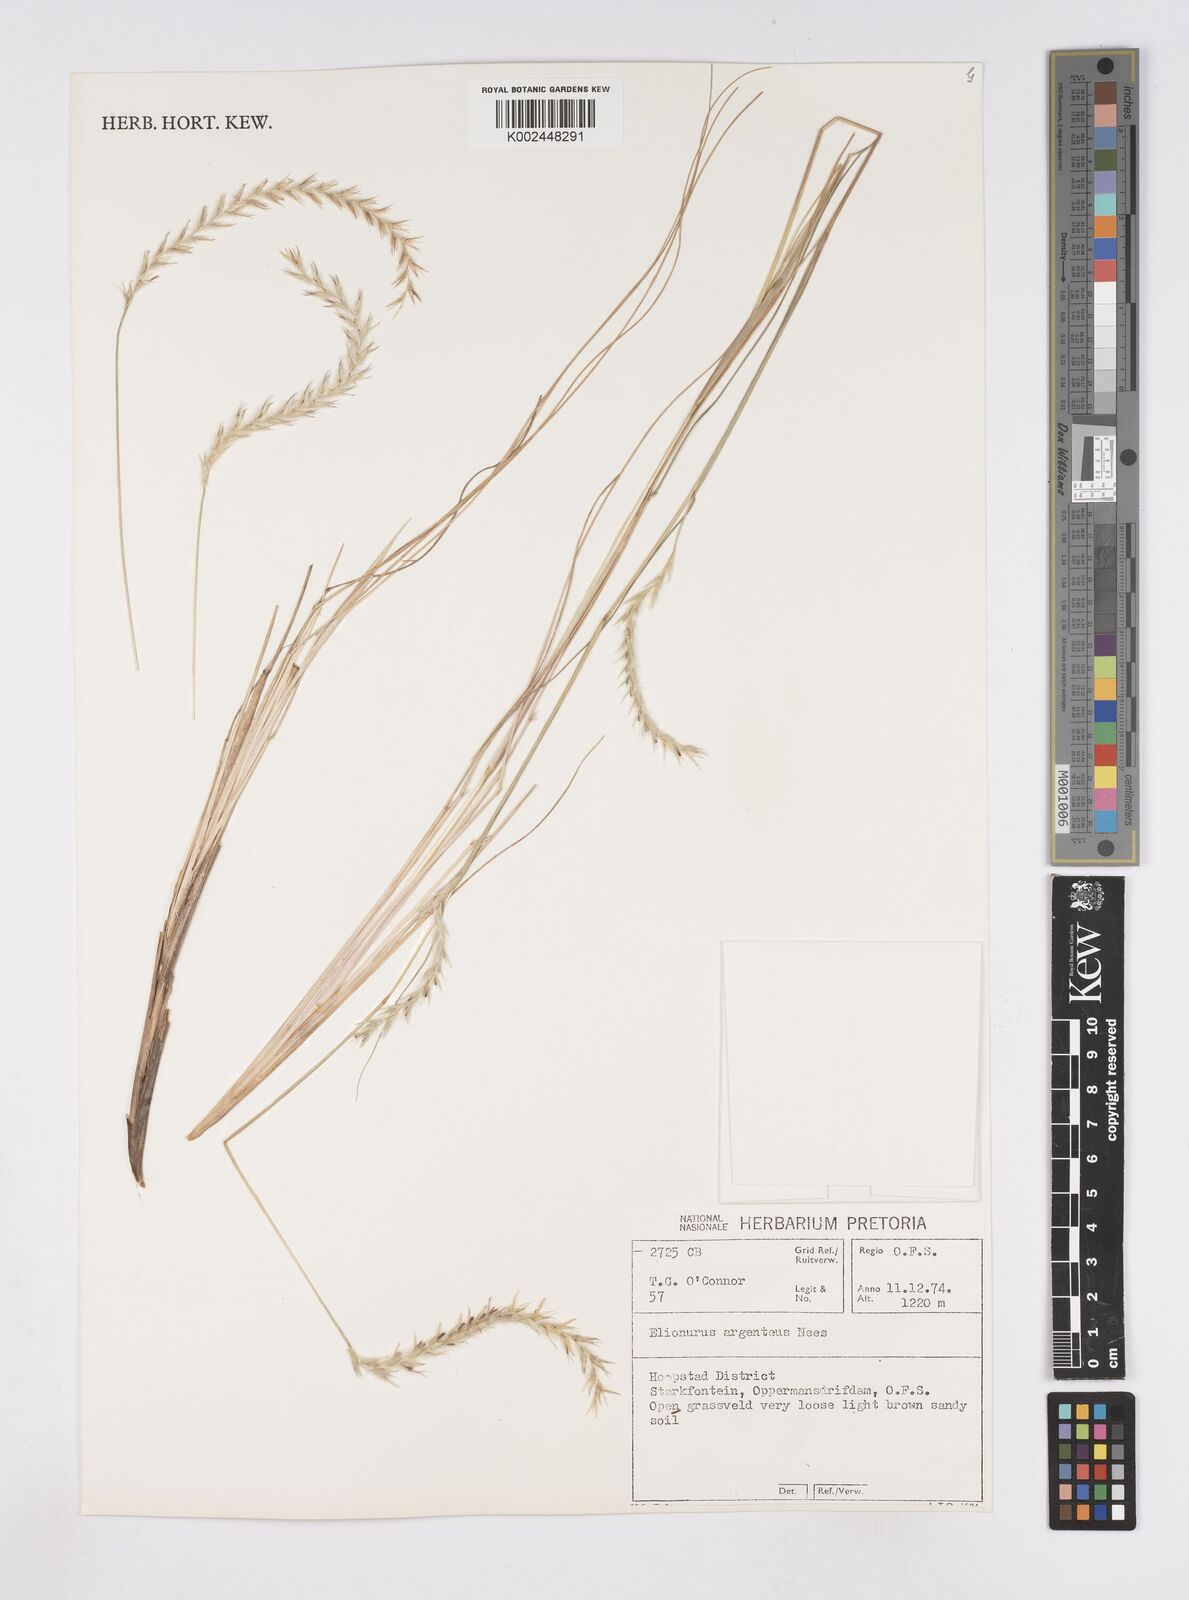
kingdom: Plantae
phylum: Tracheophyta
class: Liliopsida
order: Poales
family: Poaceae
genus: Elionurus
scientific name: Elionurus muticus
